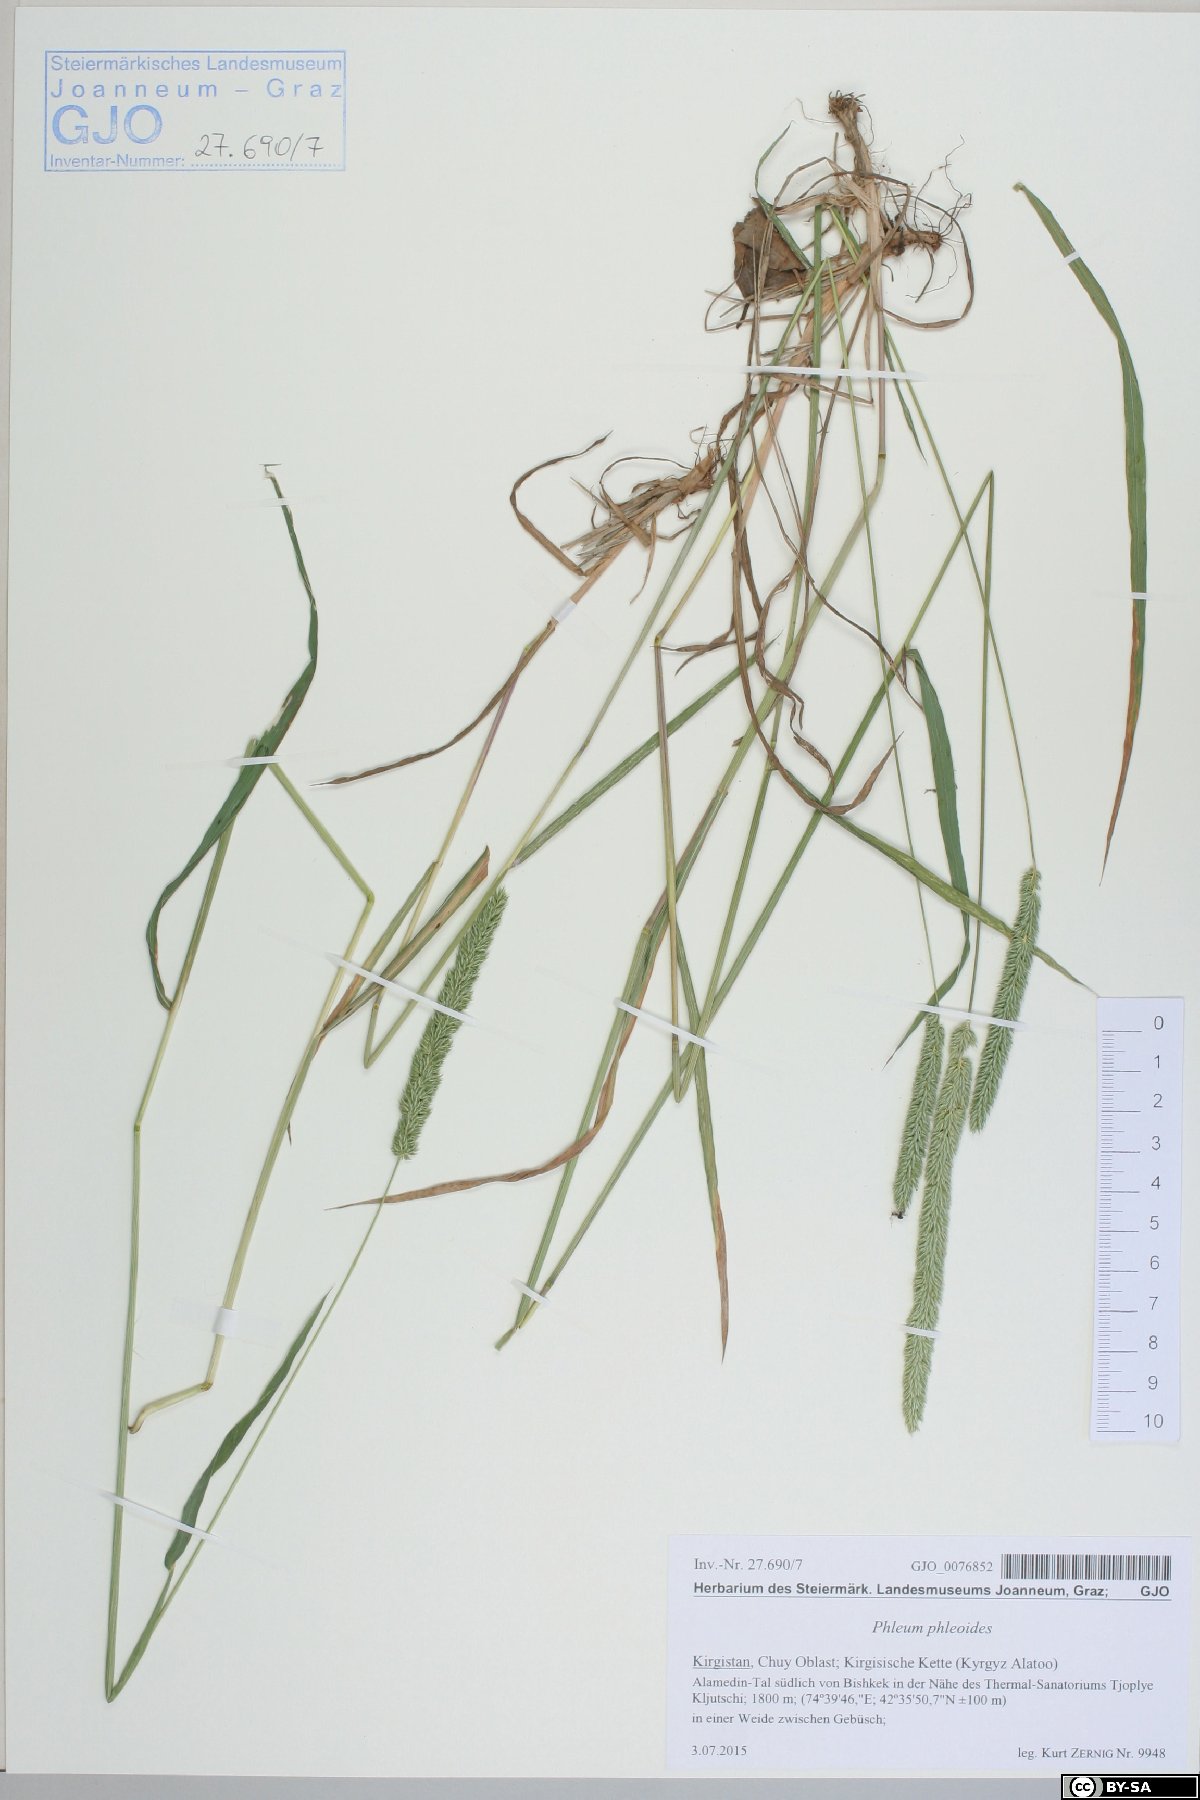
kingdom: Plantae
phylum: Tracheophyta
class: Liliopsida
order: Poales
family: Poaceae
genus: Phleum
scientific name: Phleum phleoides
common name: Purple-stem cat's-tail
